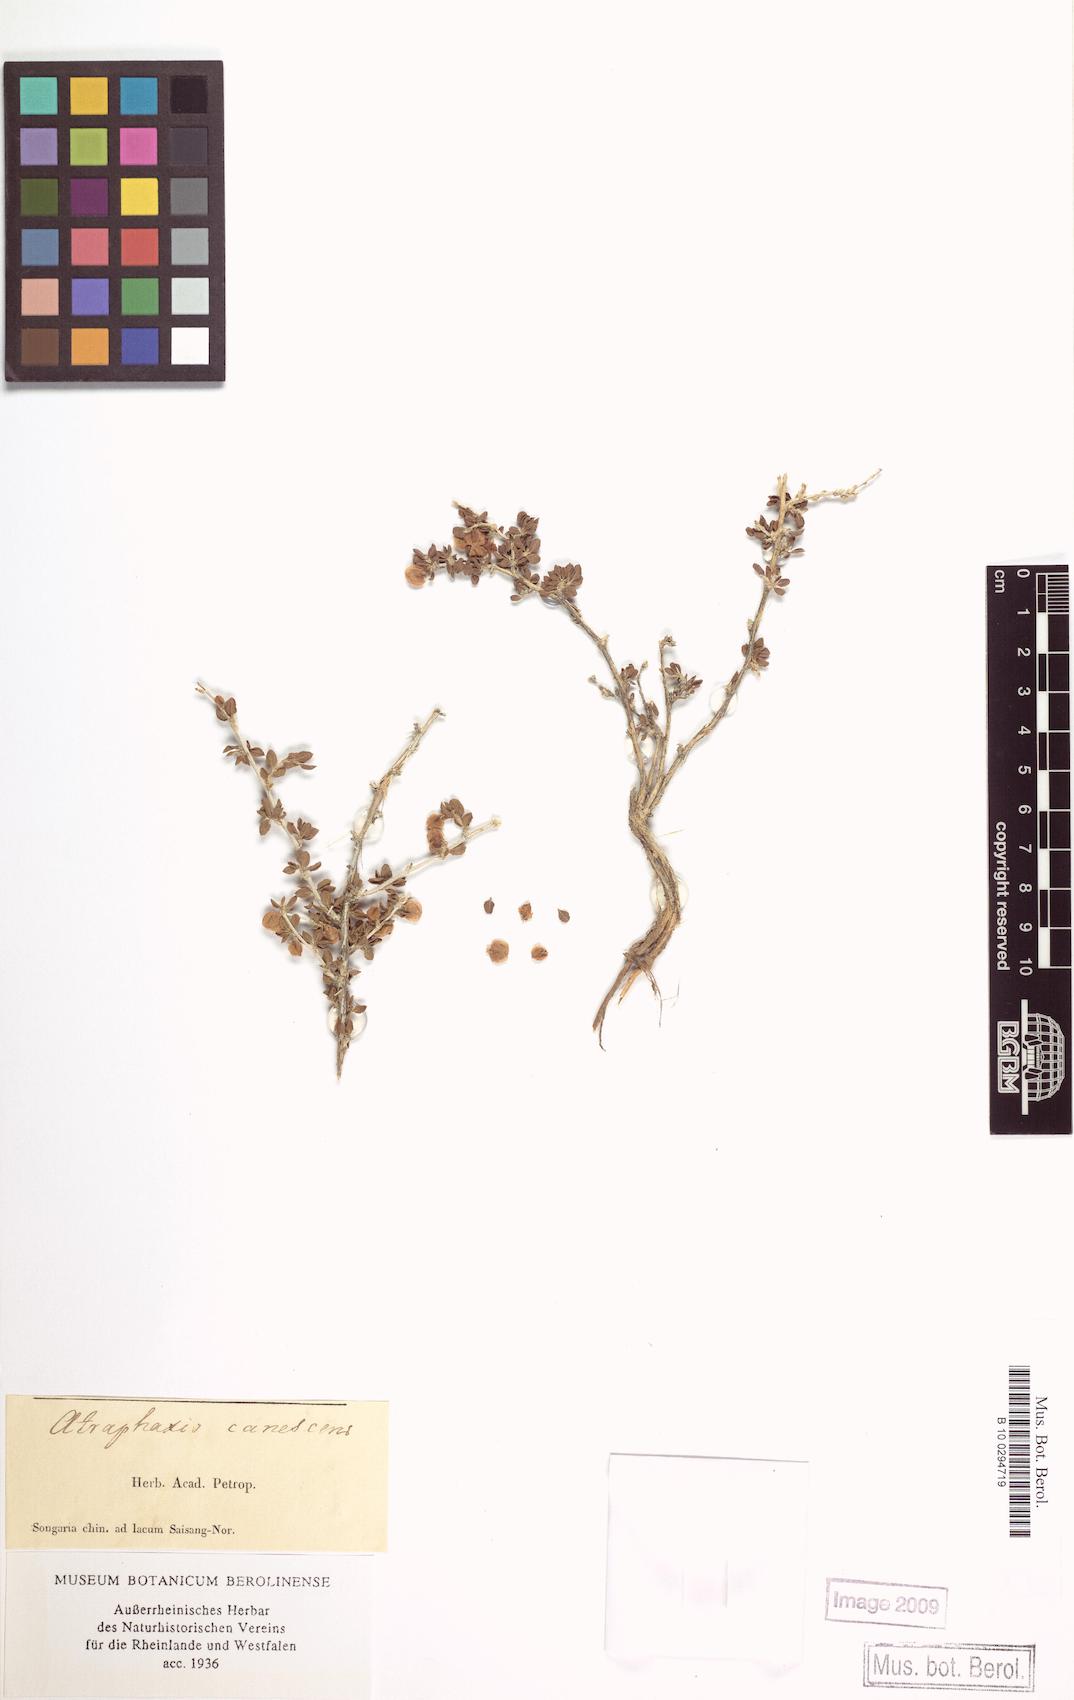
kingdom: Plantae
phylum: Tracheophyta
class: Magnoliopsida
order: Caryophyllales
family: Polygonaceae
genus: Atraphaxis
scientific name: Atraphaxis canescens
